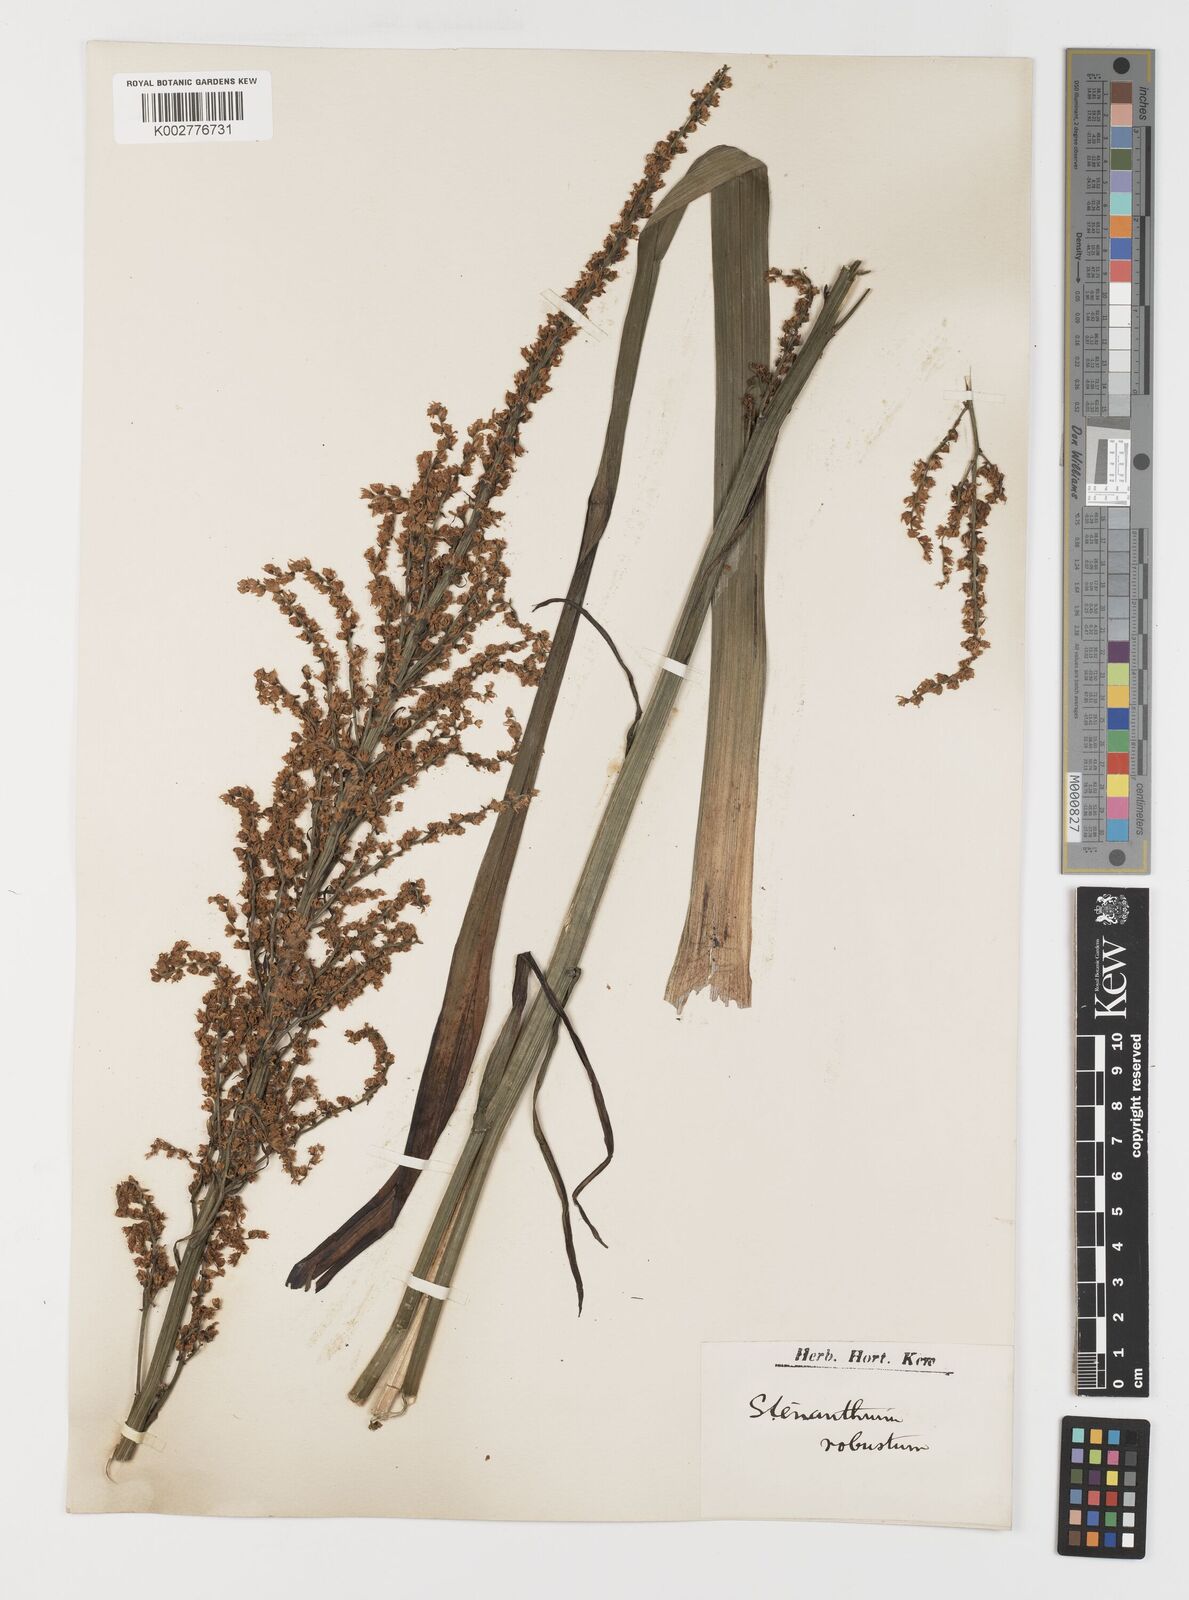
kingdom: Plantae
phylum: Tracheophyta
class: Liliopsida
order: Liliales
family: Melanthiaceae
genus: Stenanthium
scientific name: Stenanthium gramineum
